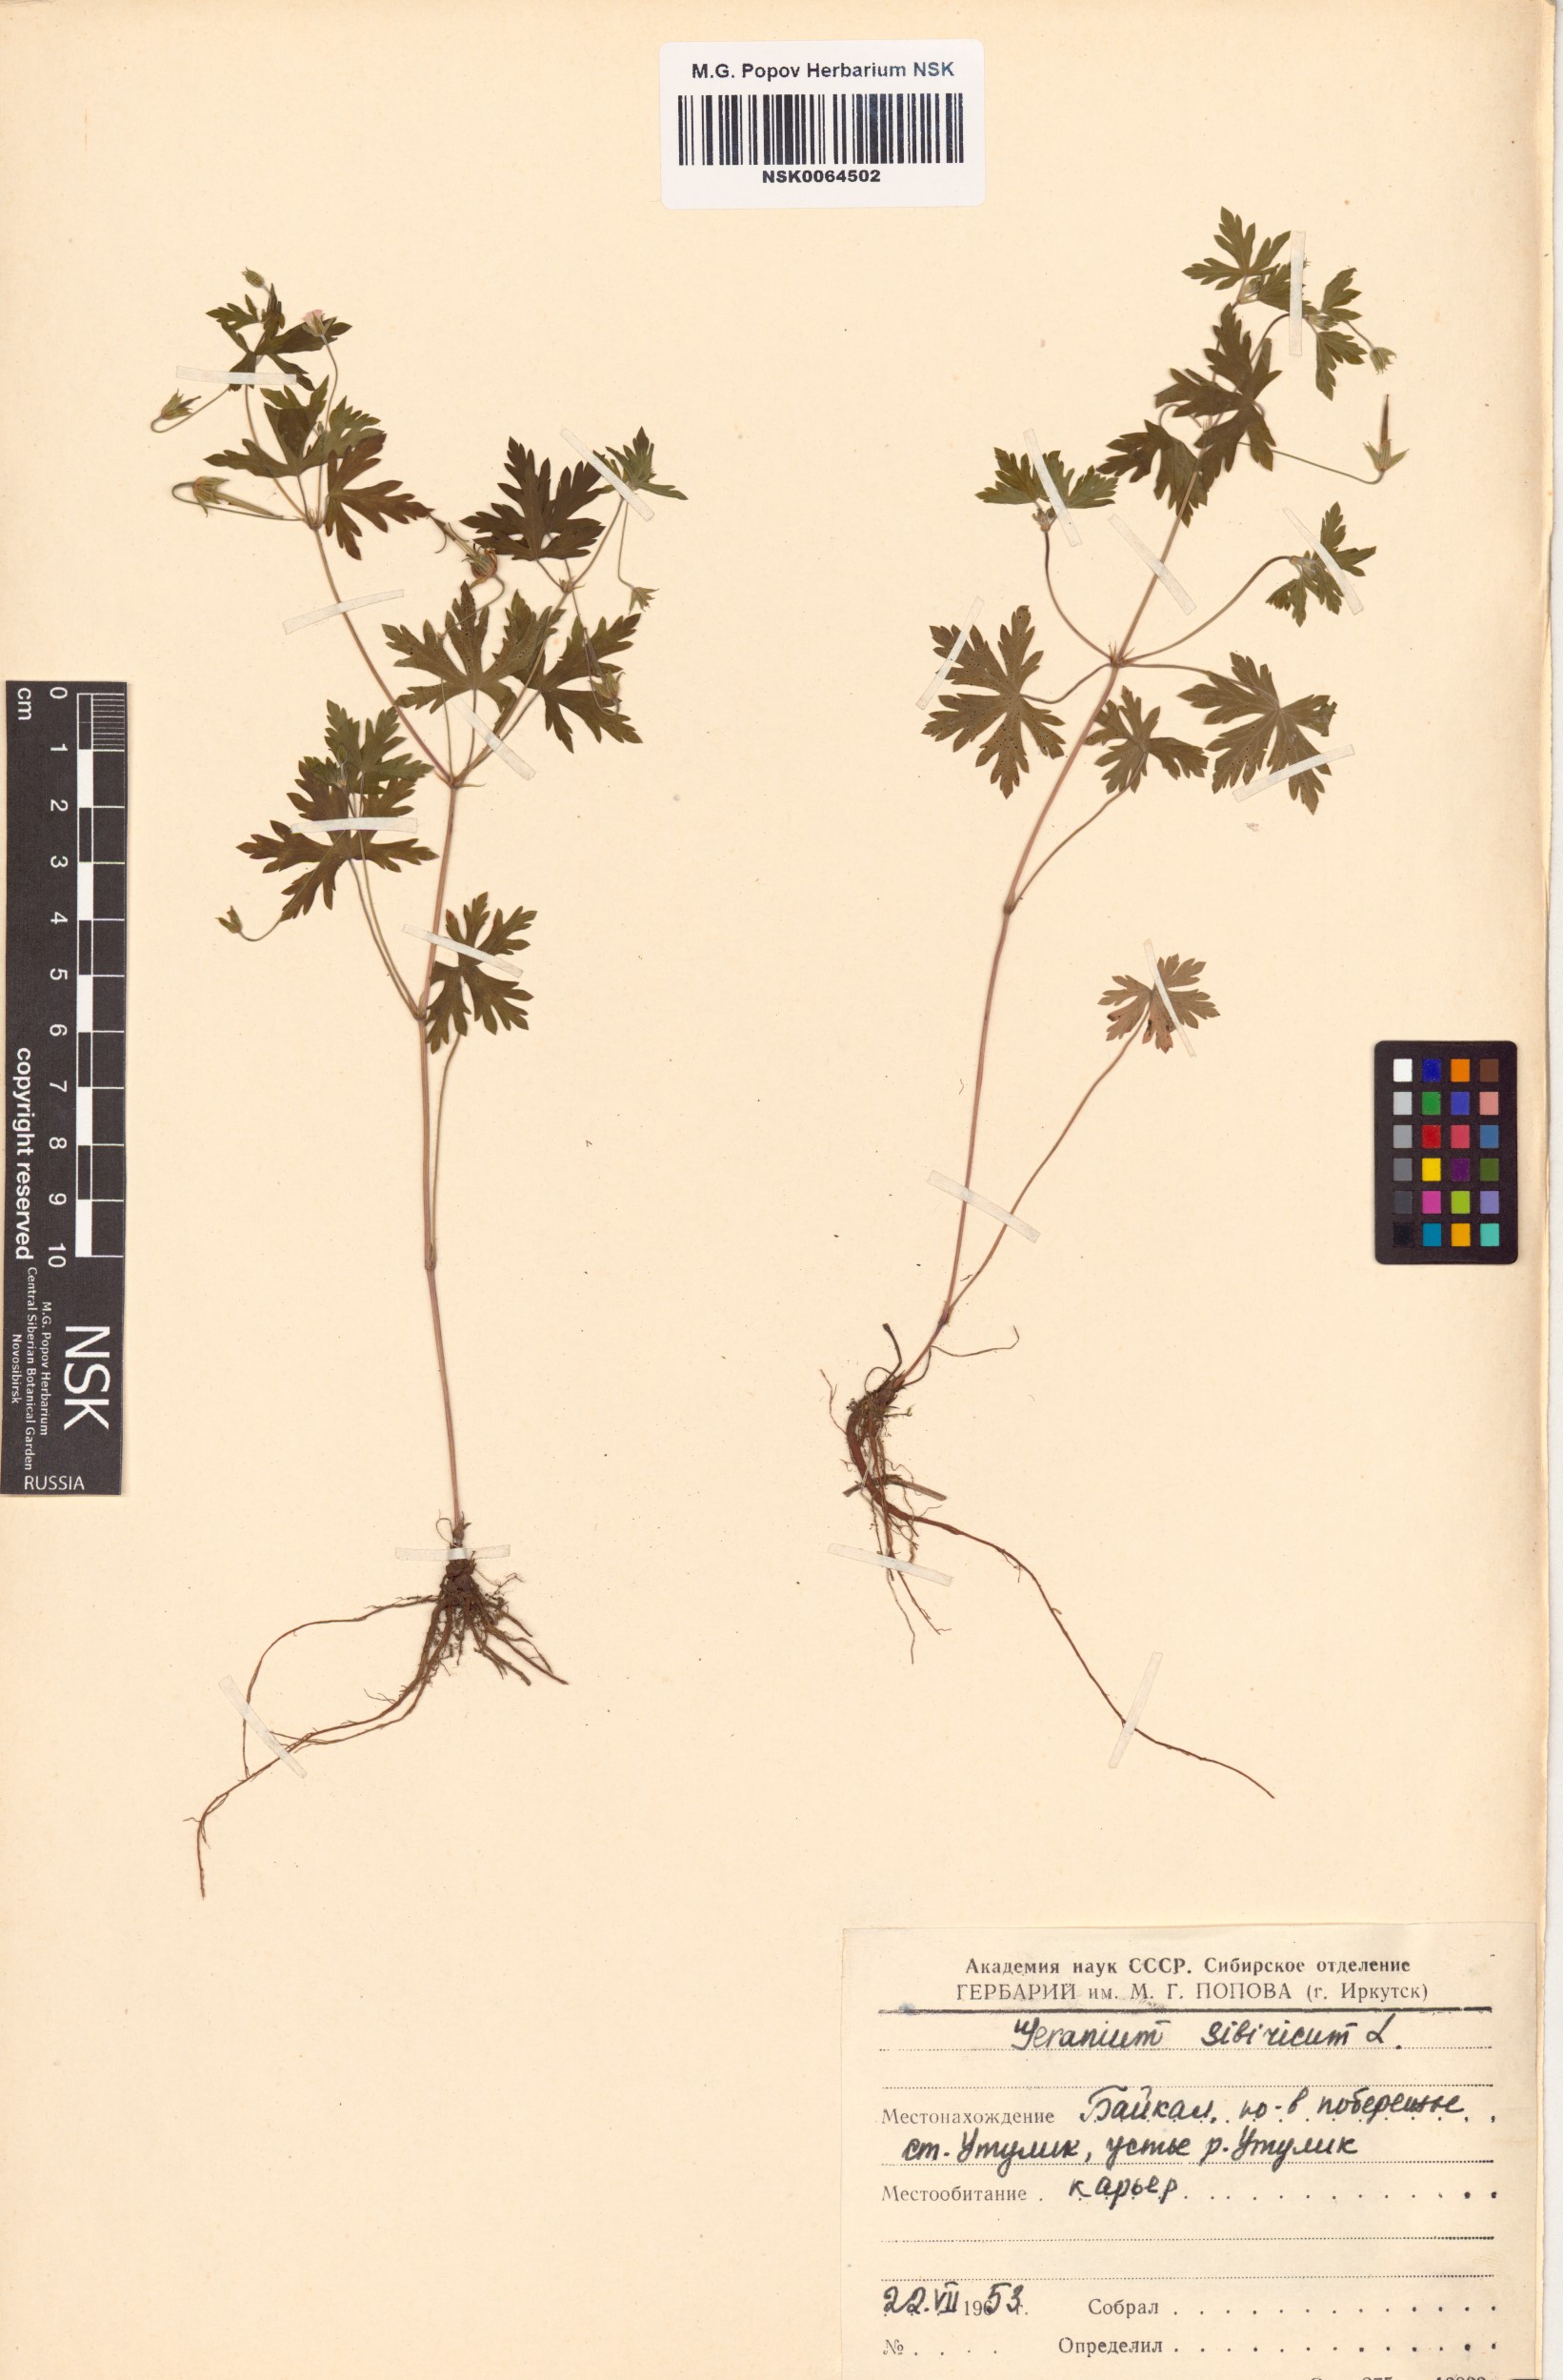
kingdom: Plantae
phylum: Tracheophyta
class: Magnoliopsida
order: Geraniales
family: Geraniaceae
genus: Geranium
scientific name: Geranium sibiricum
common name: Siberian crane's-bill
